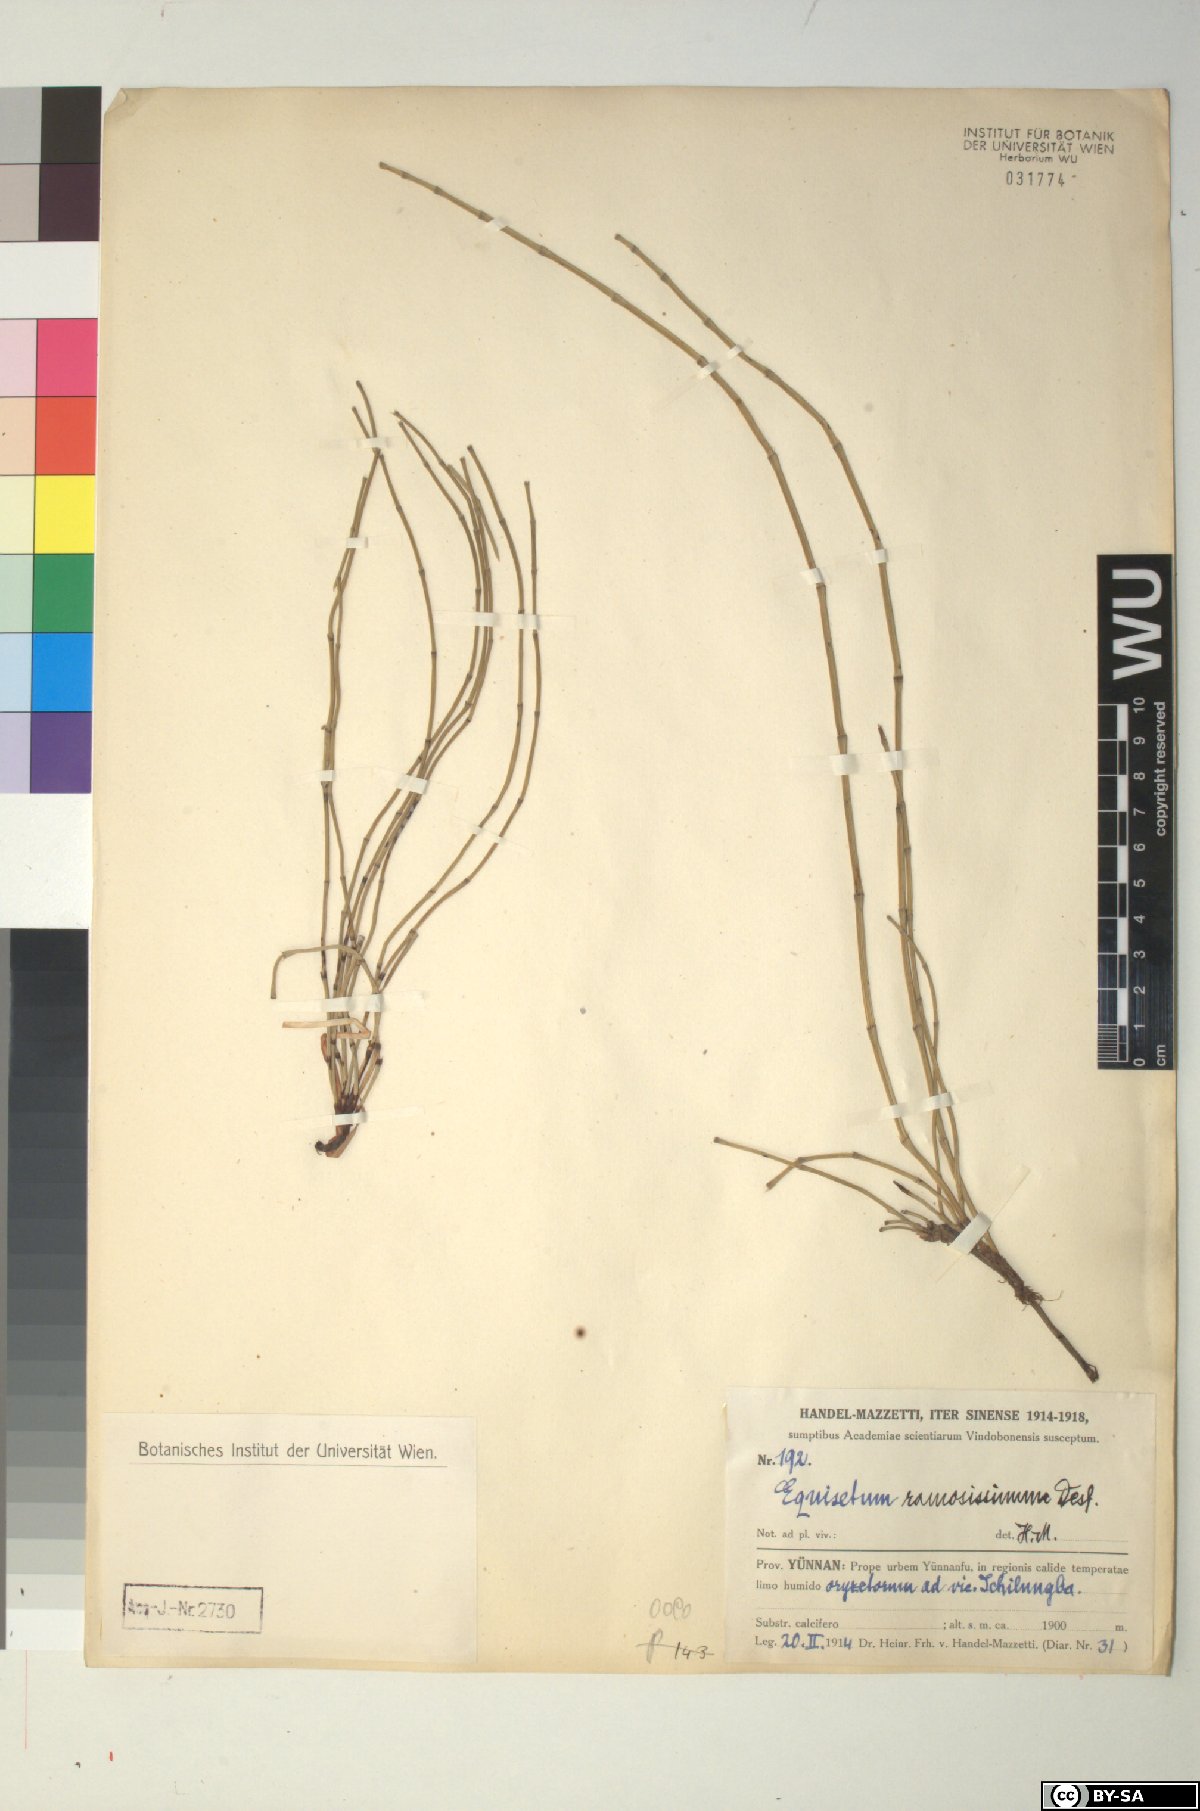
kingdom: Plantae
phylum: Tracheophyta
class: Polypodiopsida
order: Equisetales
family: Equisetaceae
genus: Equisetum
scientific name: Equisetum ramosissimum
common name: Branched horsetail
